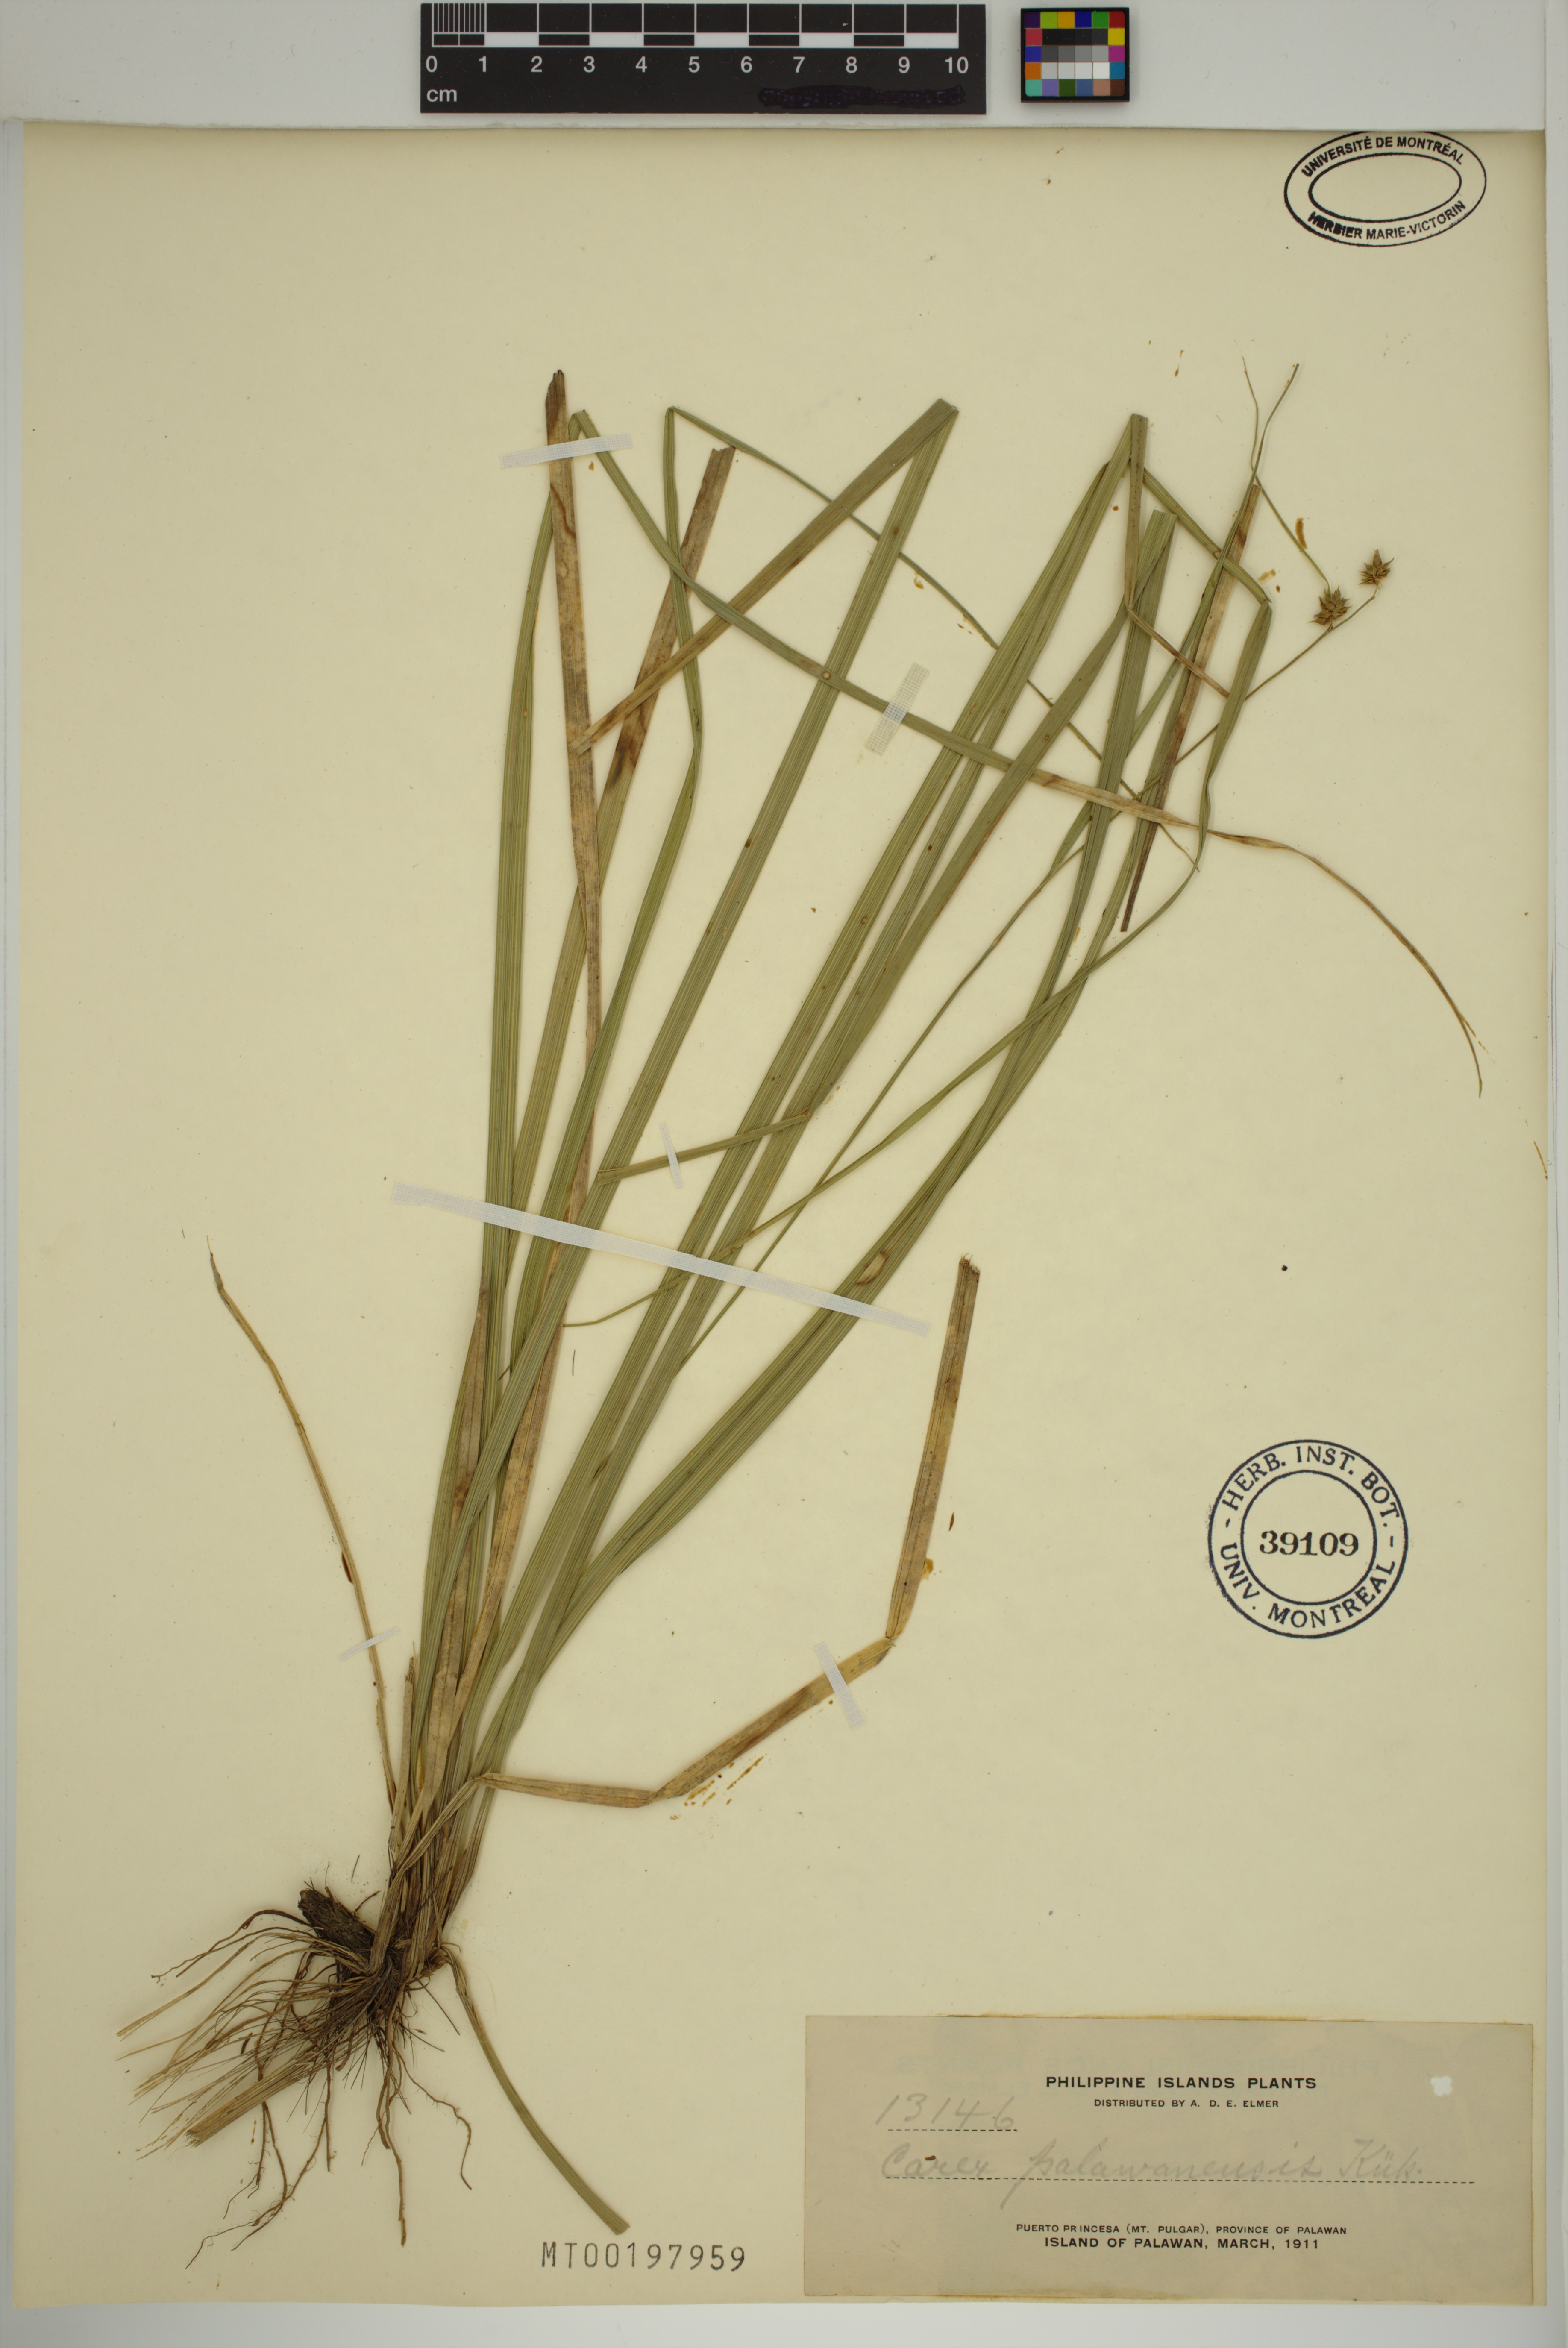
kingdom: Plantae
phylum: Tracheophyta
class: Liliopsida
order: Poales
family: Cyperaceae
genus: Carex
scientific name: Carex palawanensis
